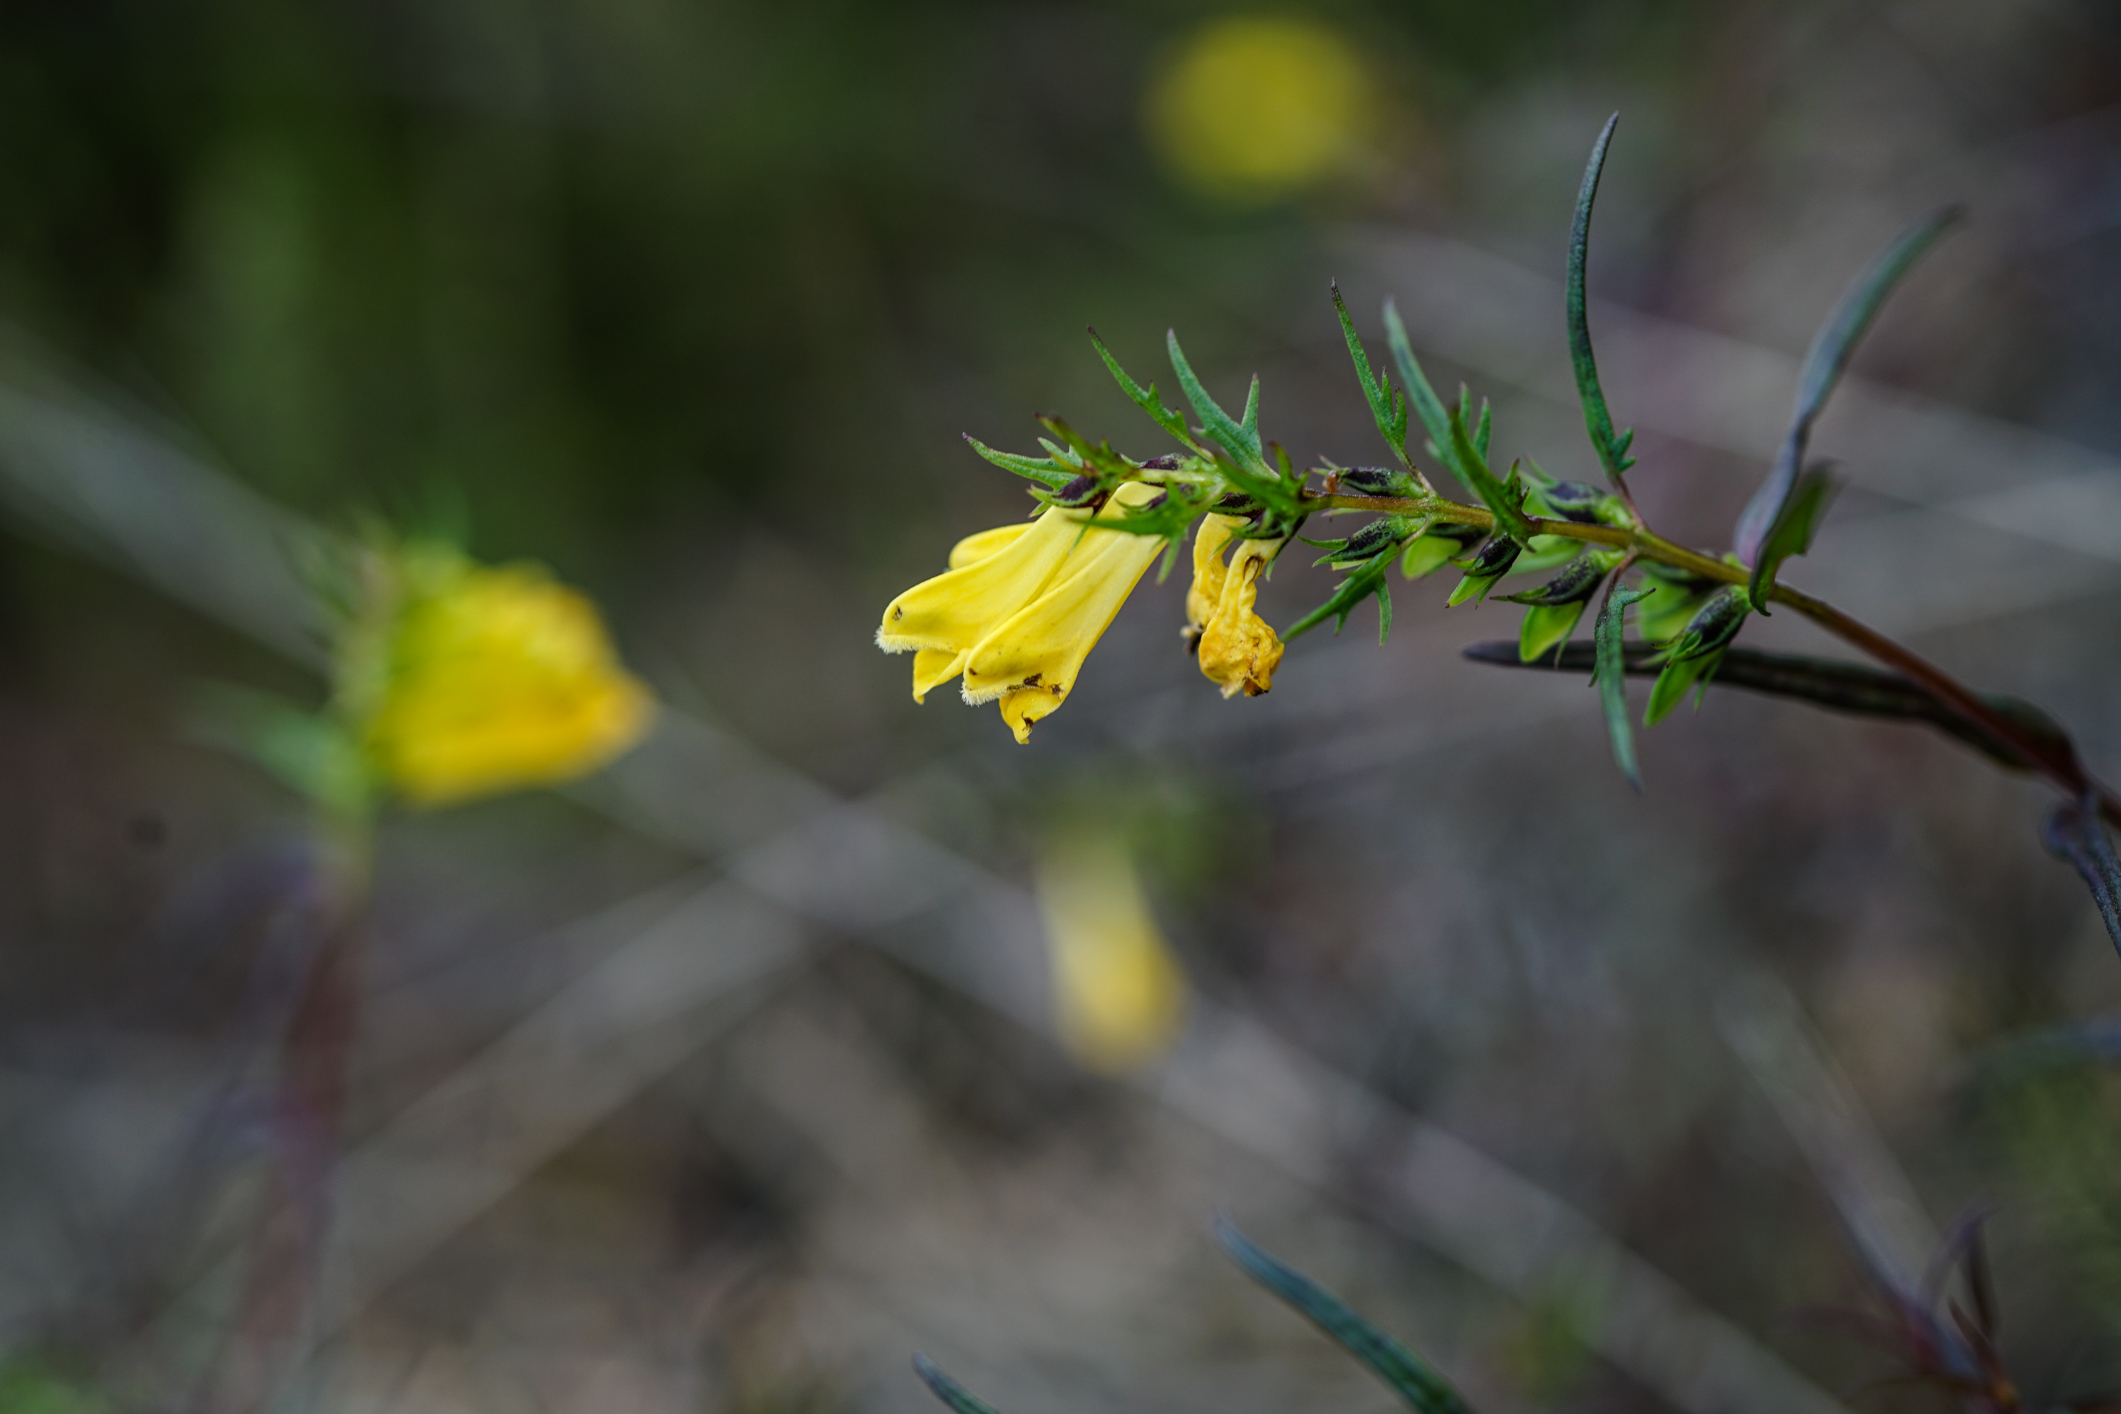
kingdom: Plantae
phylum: Tracheophyta
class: Magnoliopsida
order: Lamiales
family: Orobanchaceae
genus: Melampyrum
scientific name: Melampyrum sylvaticum
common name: Small cow-wheat
